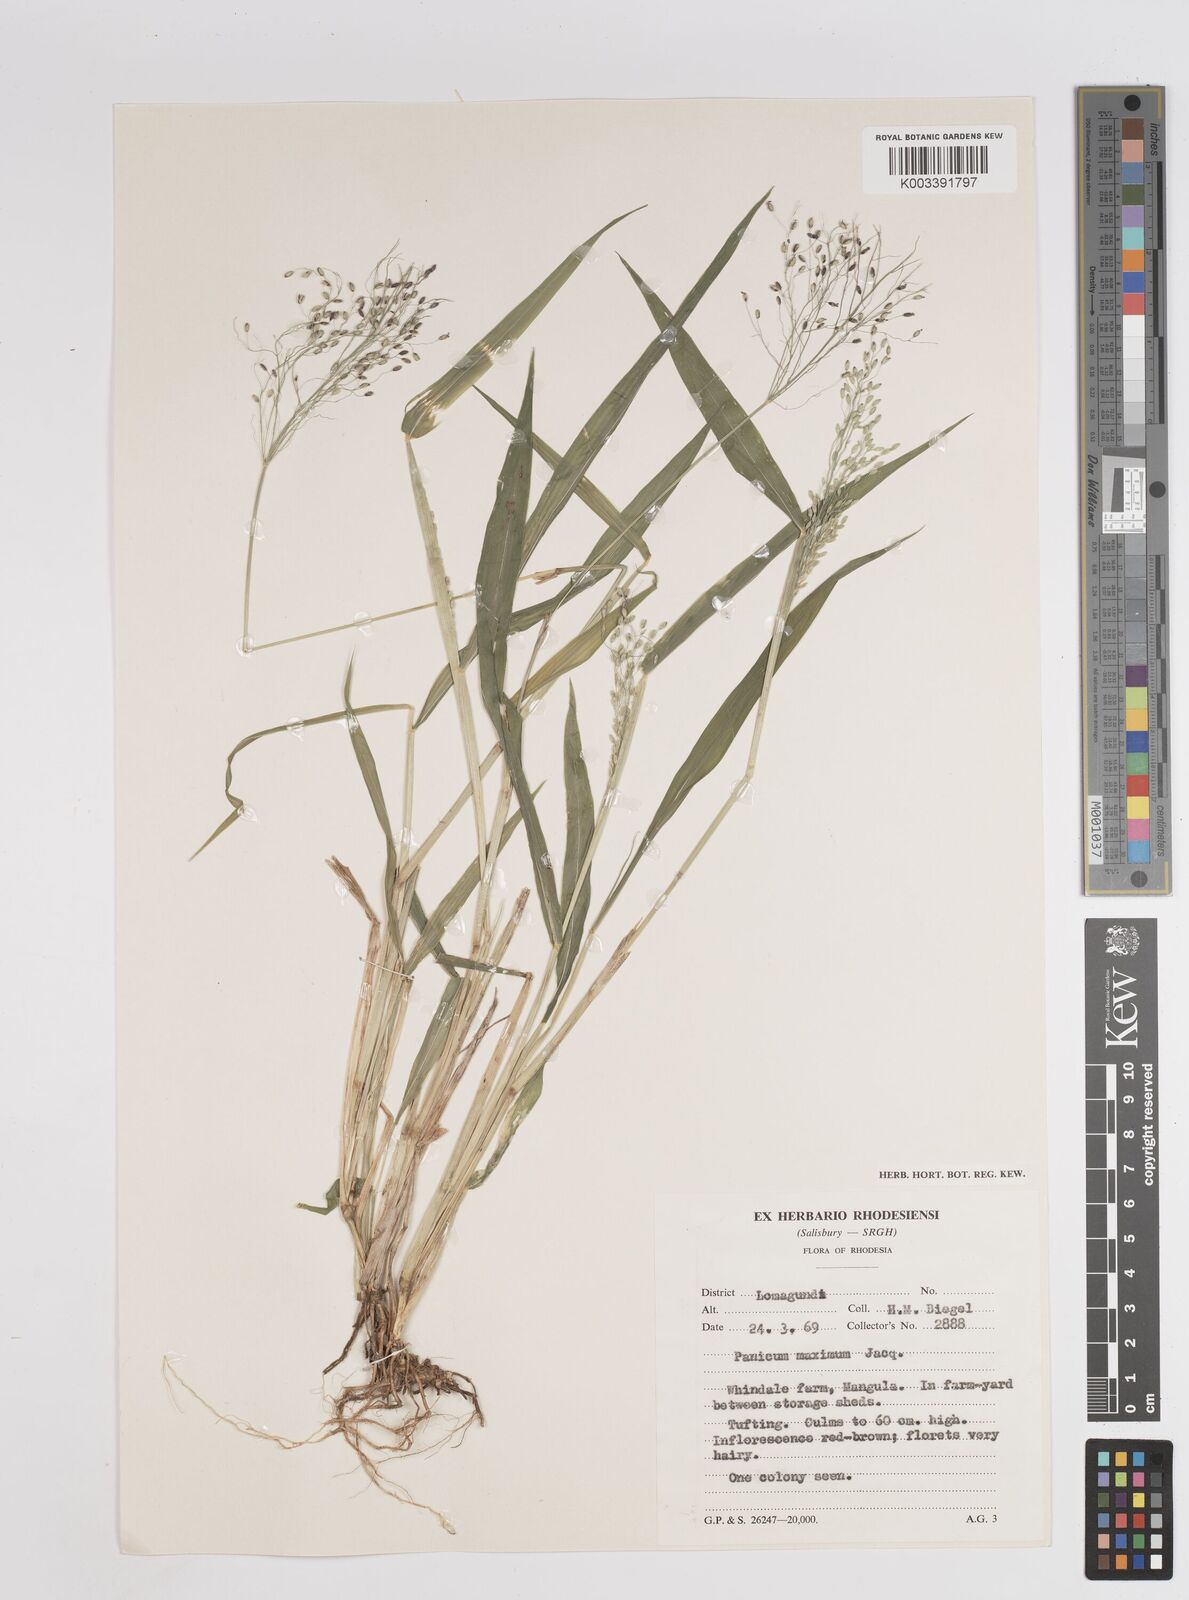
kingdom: Plantae
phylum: Tracheophyta
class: Liliopsida
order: Poales
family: Poaceae
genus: Megathyrsus
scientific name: Megathyrsus maximus
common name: Guineagrass
